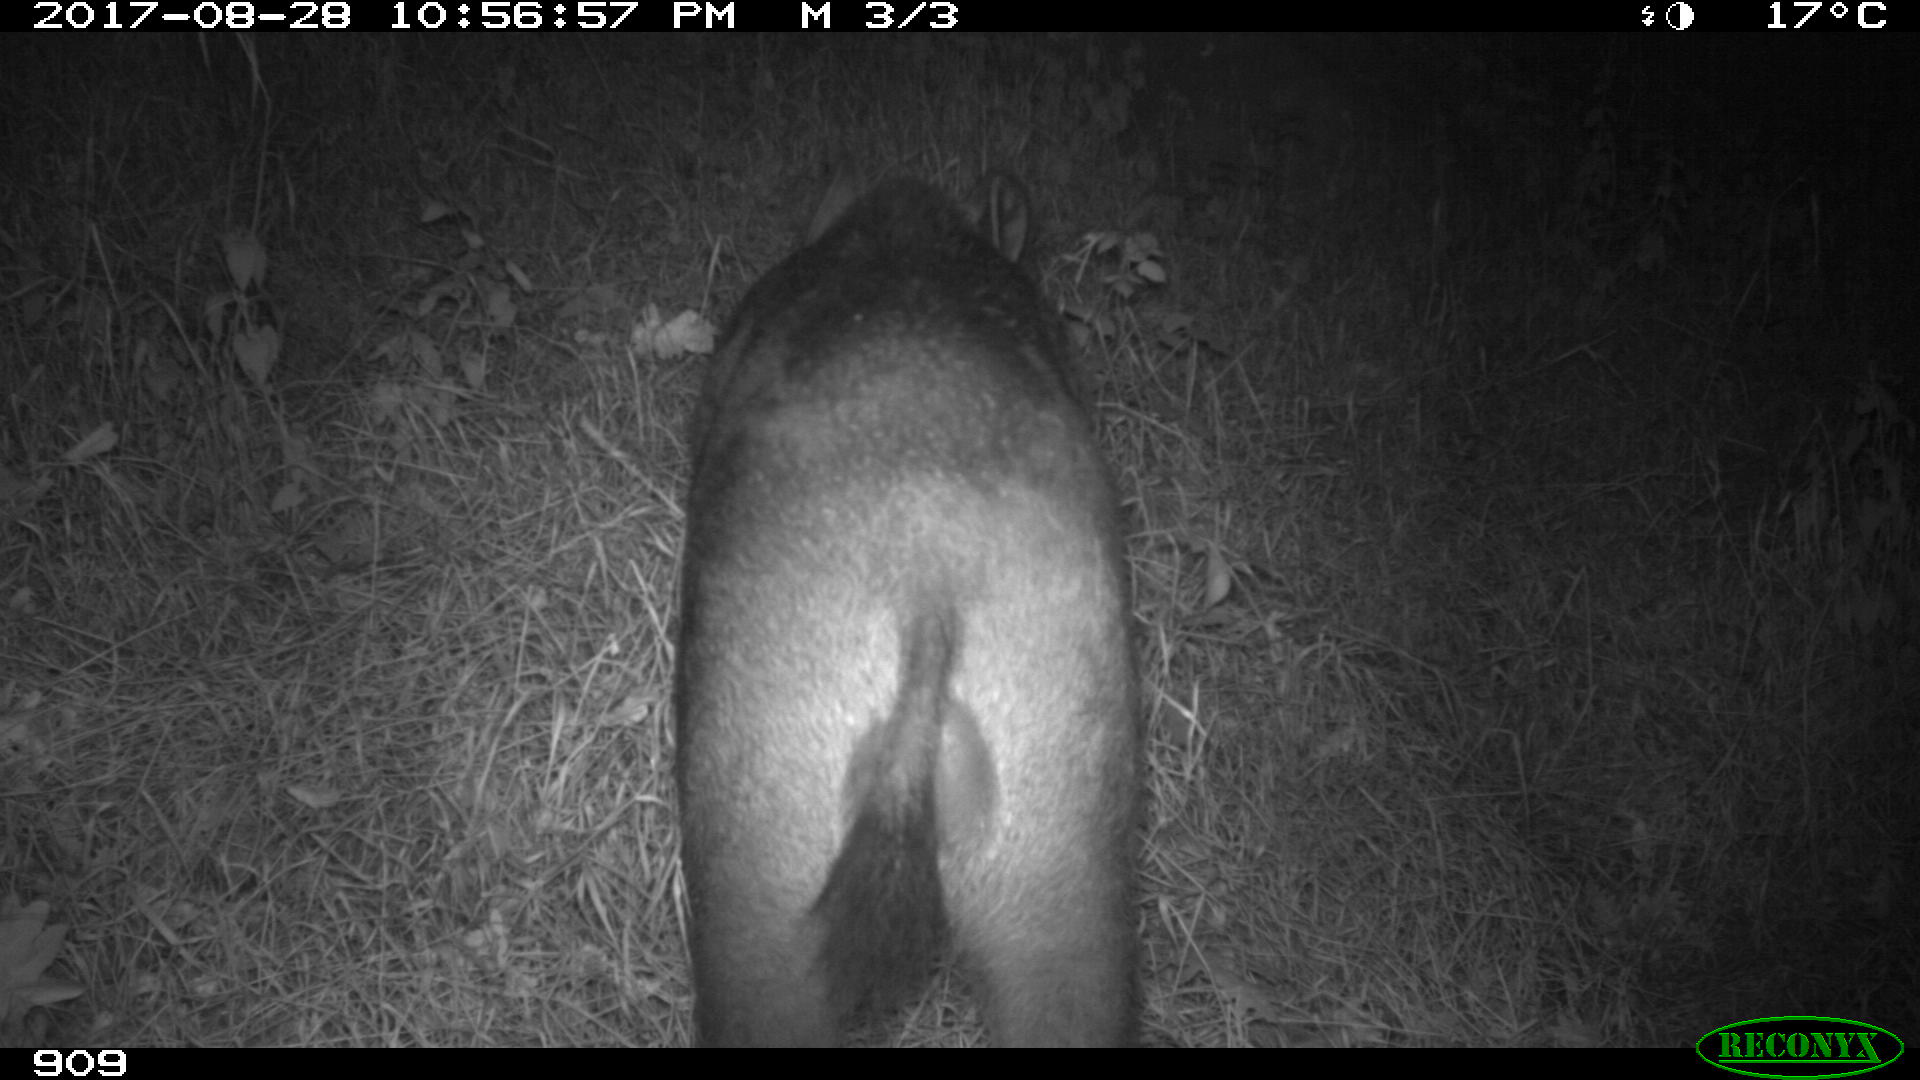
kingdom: Animalia
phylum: Chordata
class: Mammalia
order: Artiodactyla
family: Suidae
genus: Sus
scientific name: Sus scrofa
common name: Wild boar
